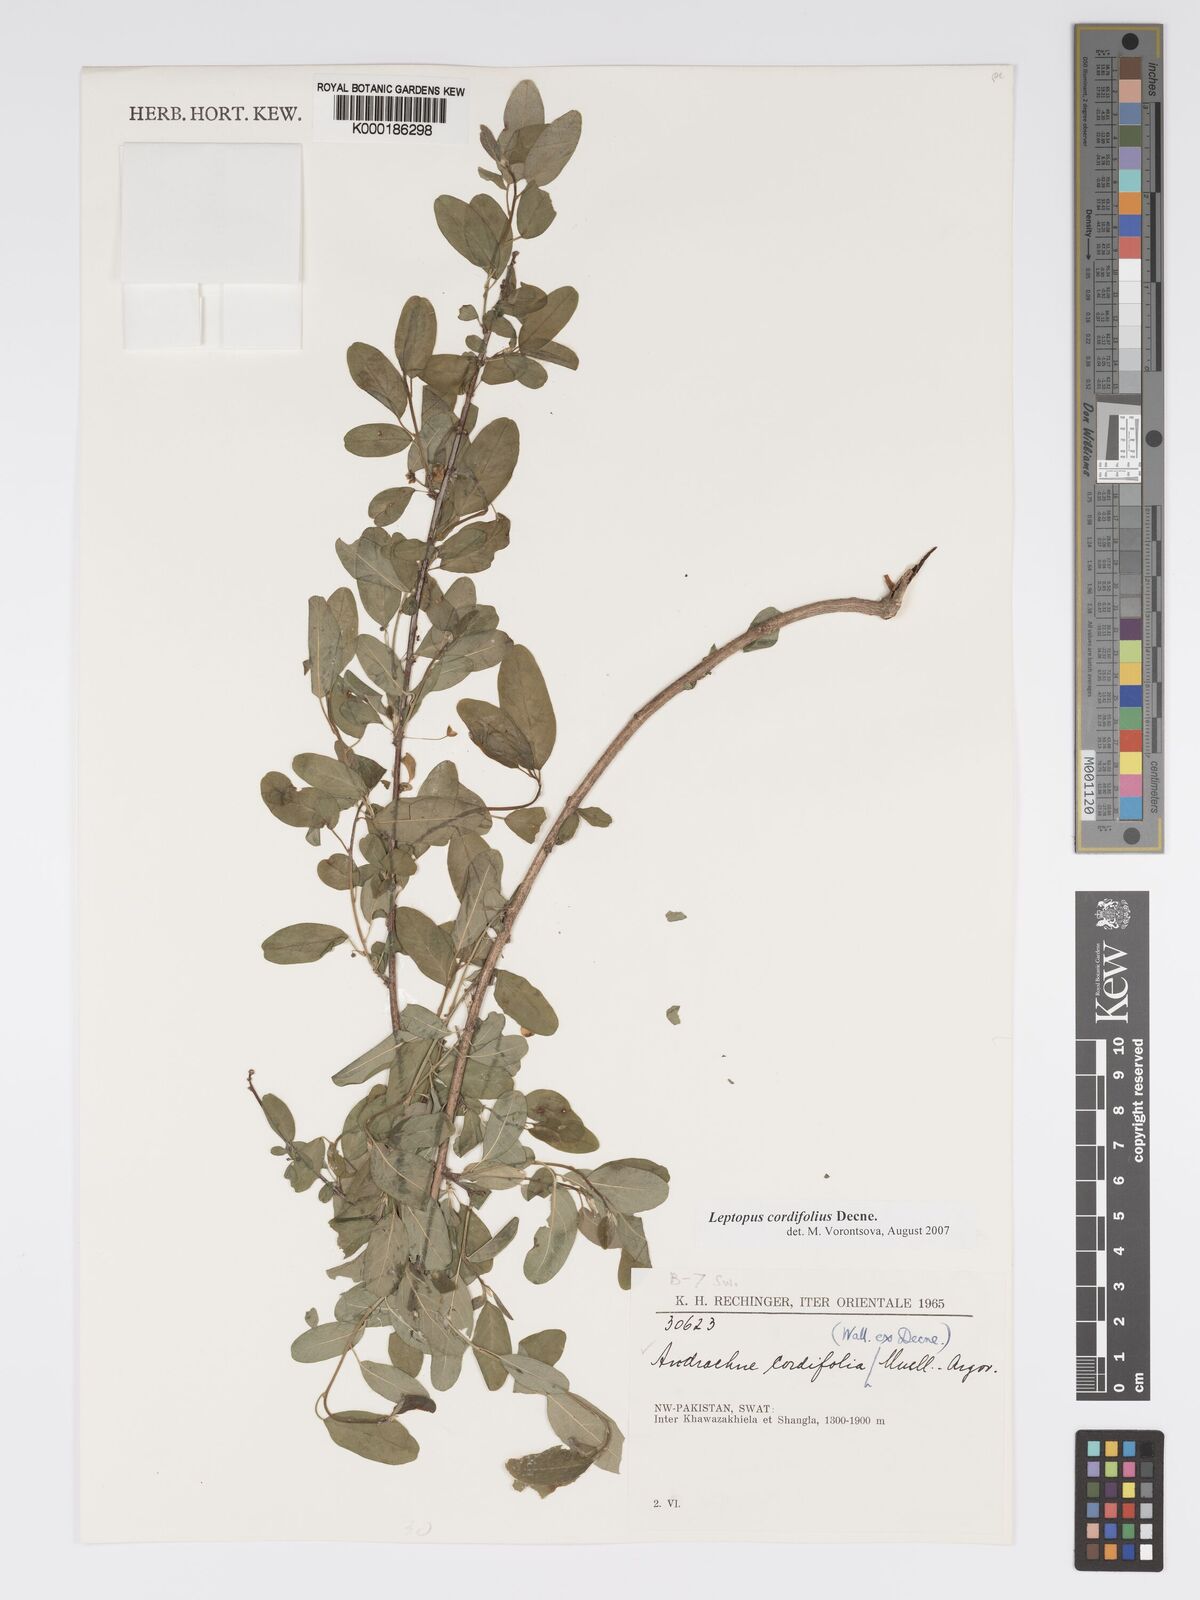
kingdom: Plantae
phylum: Tracheophyta
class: Magnoliopsida
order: Malpighiales
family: Phyllanthaceae
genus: Leptopus
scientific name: Leptopus cordifolius
